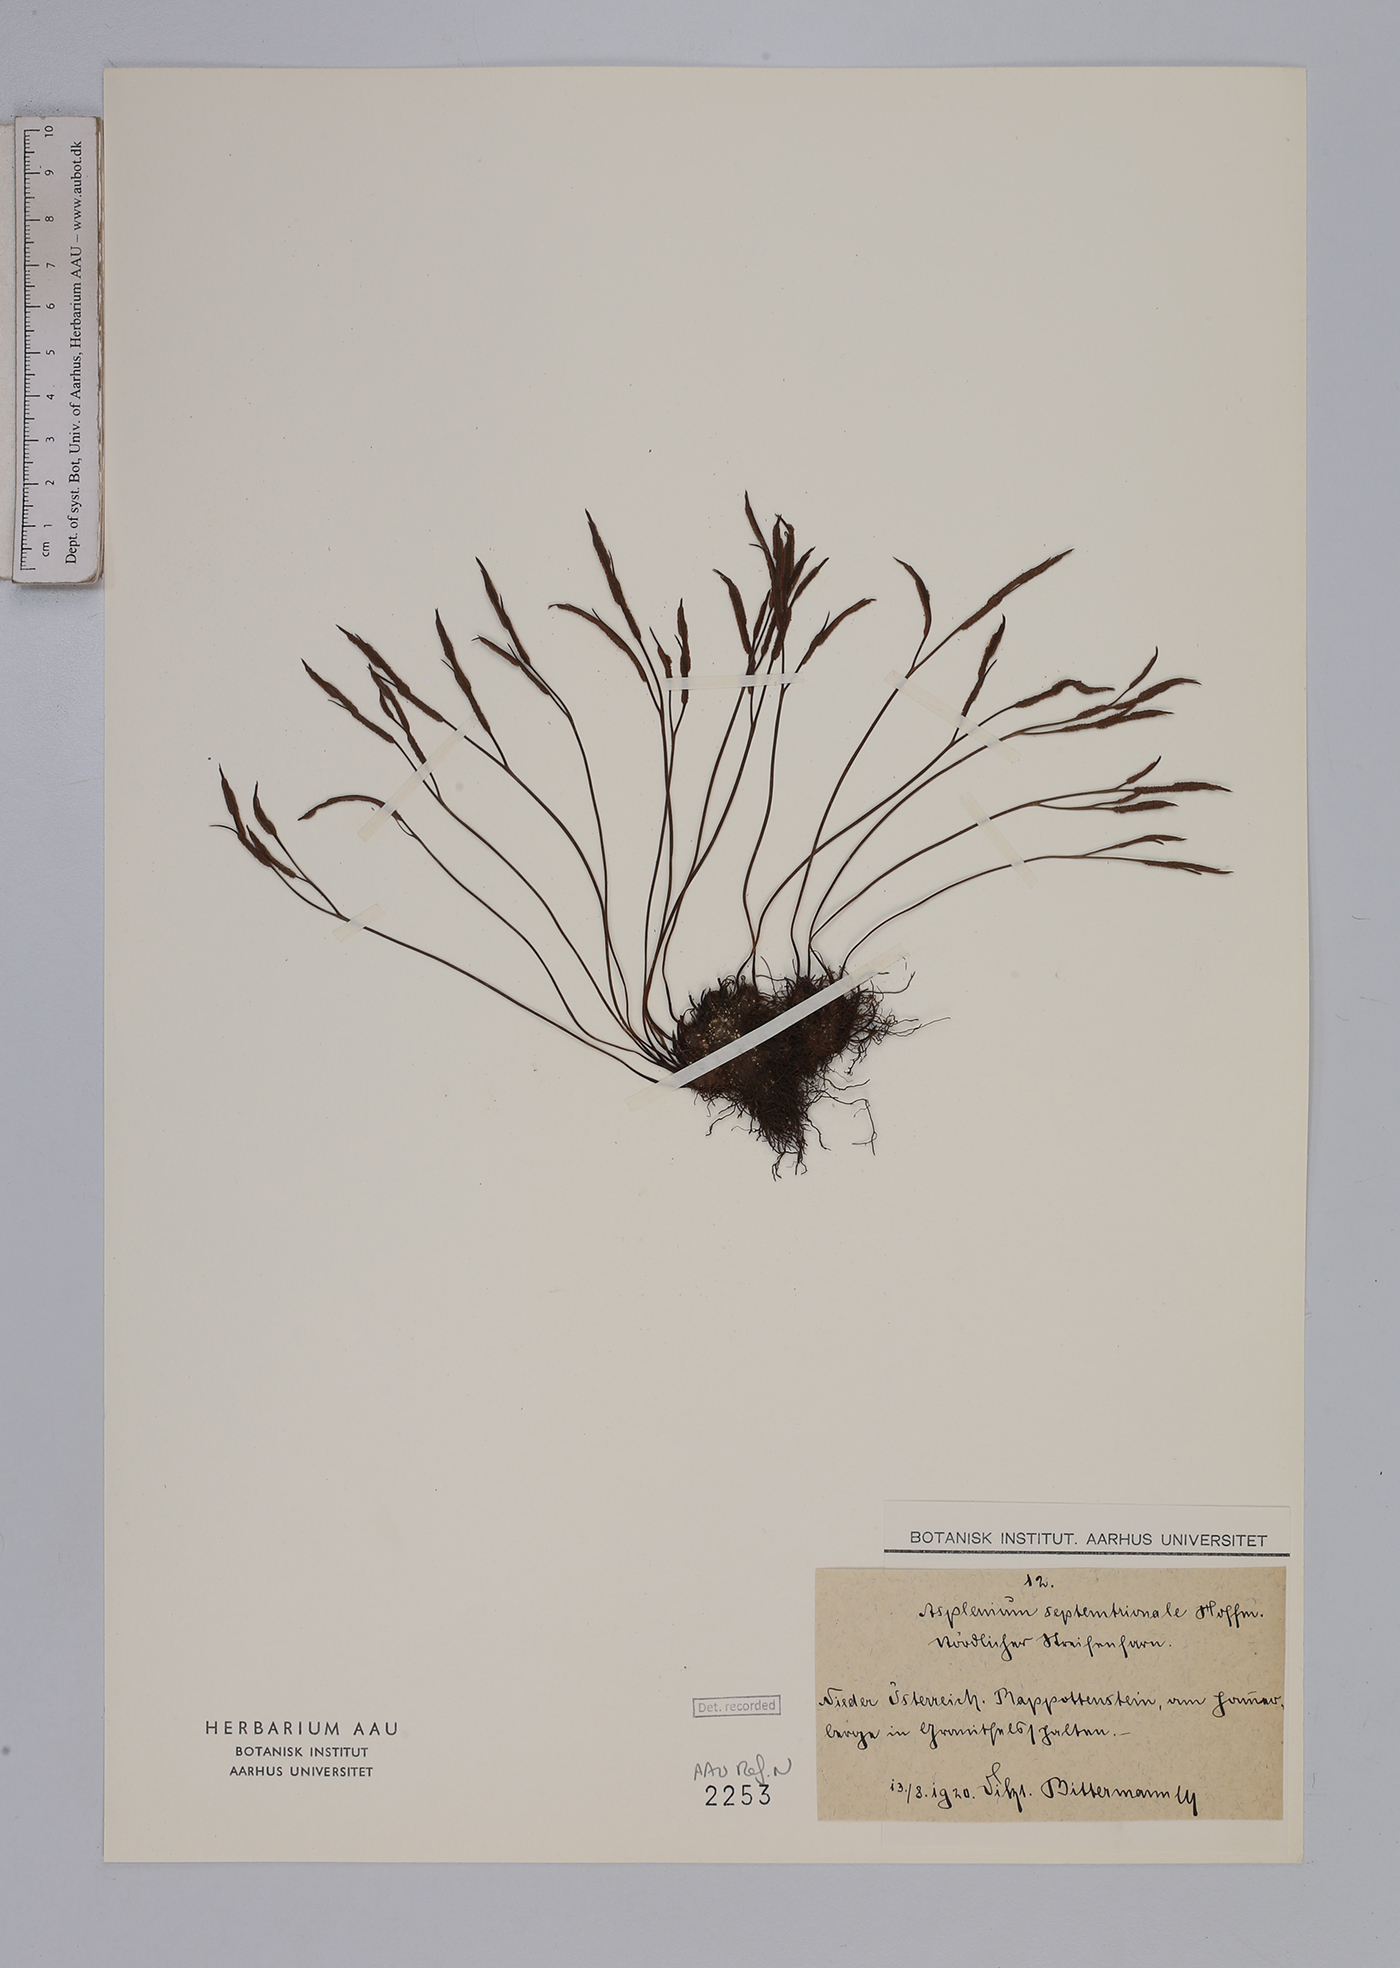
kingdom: Plantae
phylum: Tracheophyta
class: Polypodiopsida
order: Polypodiales
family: Aspleniaceae
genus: Asplenium
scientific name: Asplenium septentrionale
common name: Forked spleenwort
